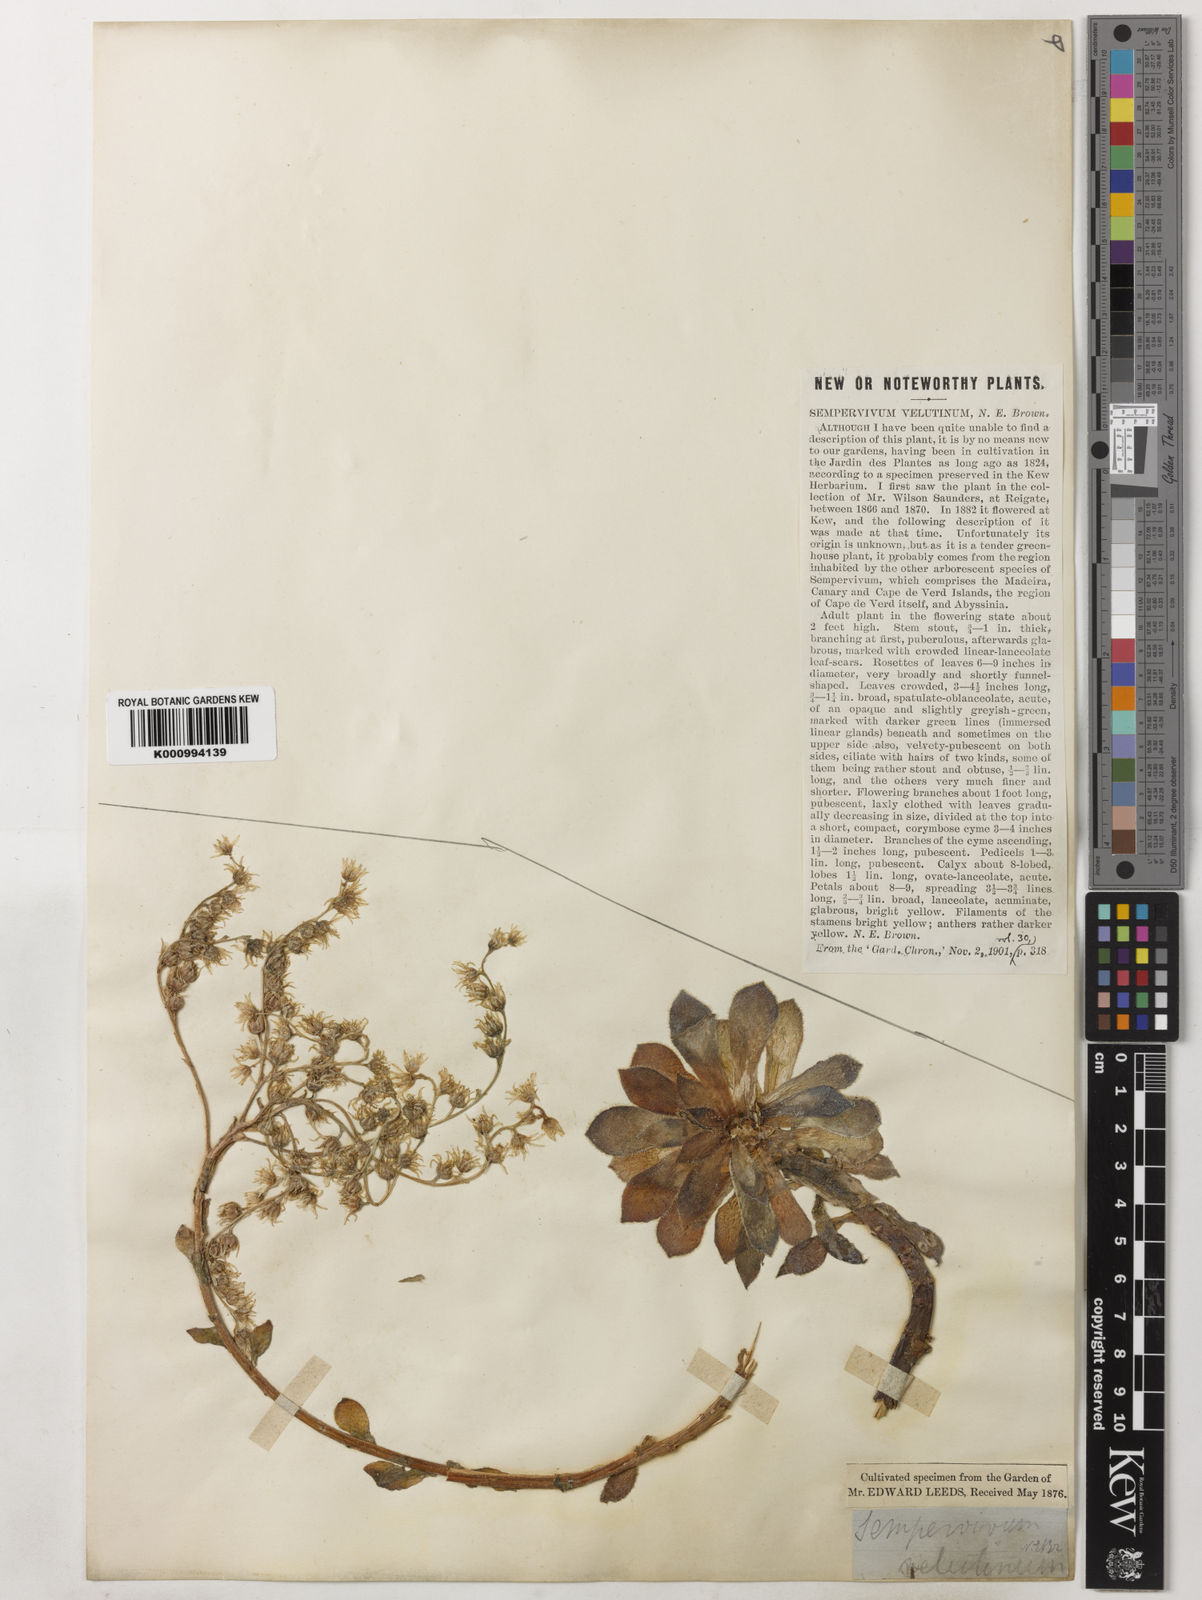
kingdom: Plantae
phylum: Tracheophyta
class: Magnoliopsida
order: Saxifragales
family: Crassulaceae
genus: Aeonium
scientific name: Aeonium
